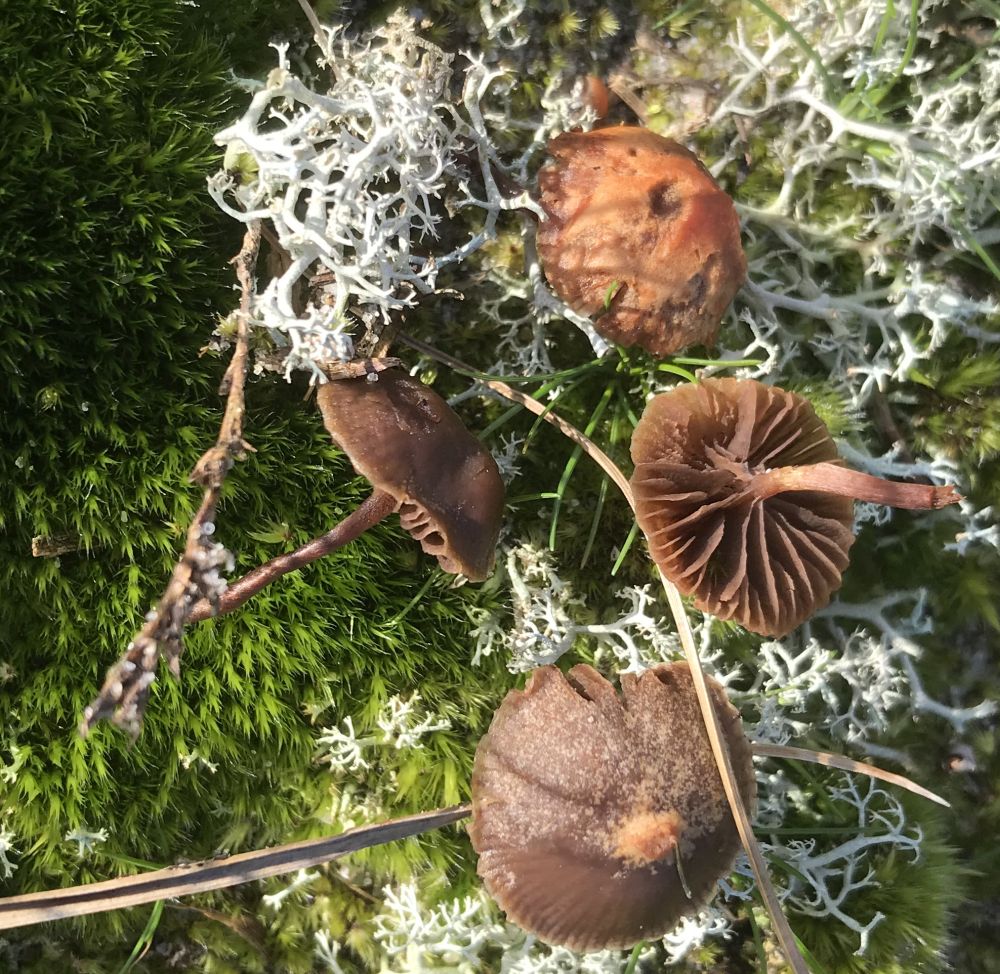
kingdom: Fungi
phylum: Basidiomycota
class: Agaricomycetes
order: Agaricales
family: Strophariaceae
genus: Deconica
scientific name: Deconica montana
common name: rødbrun stråhat
